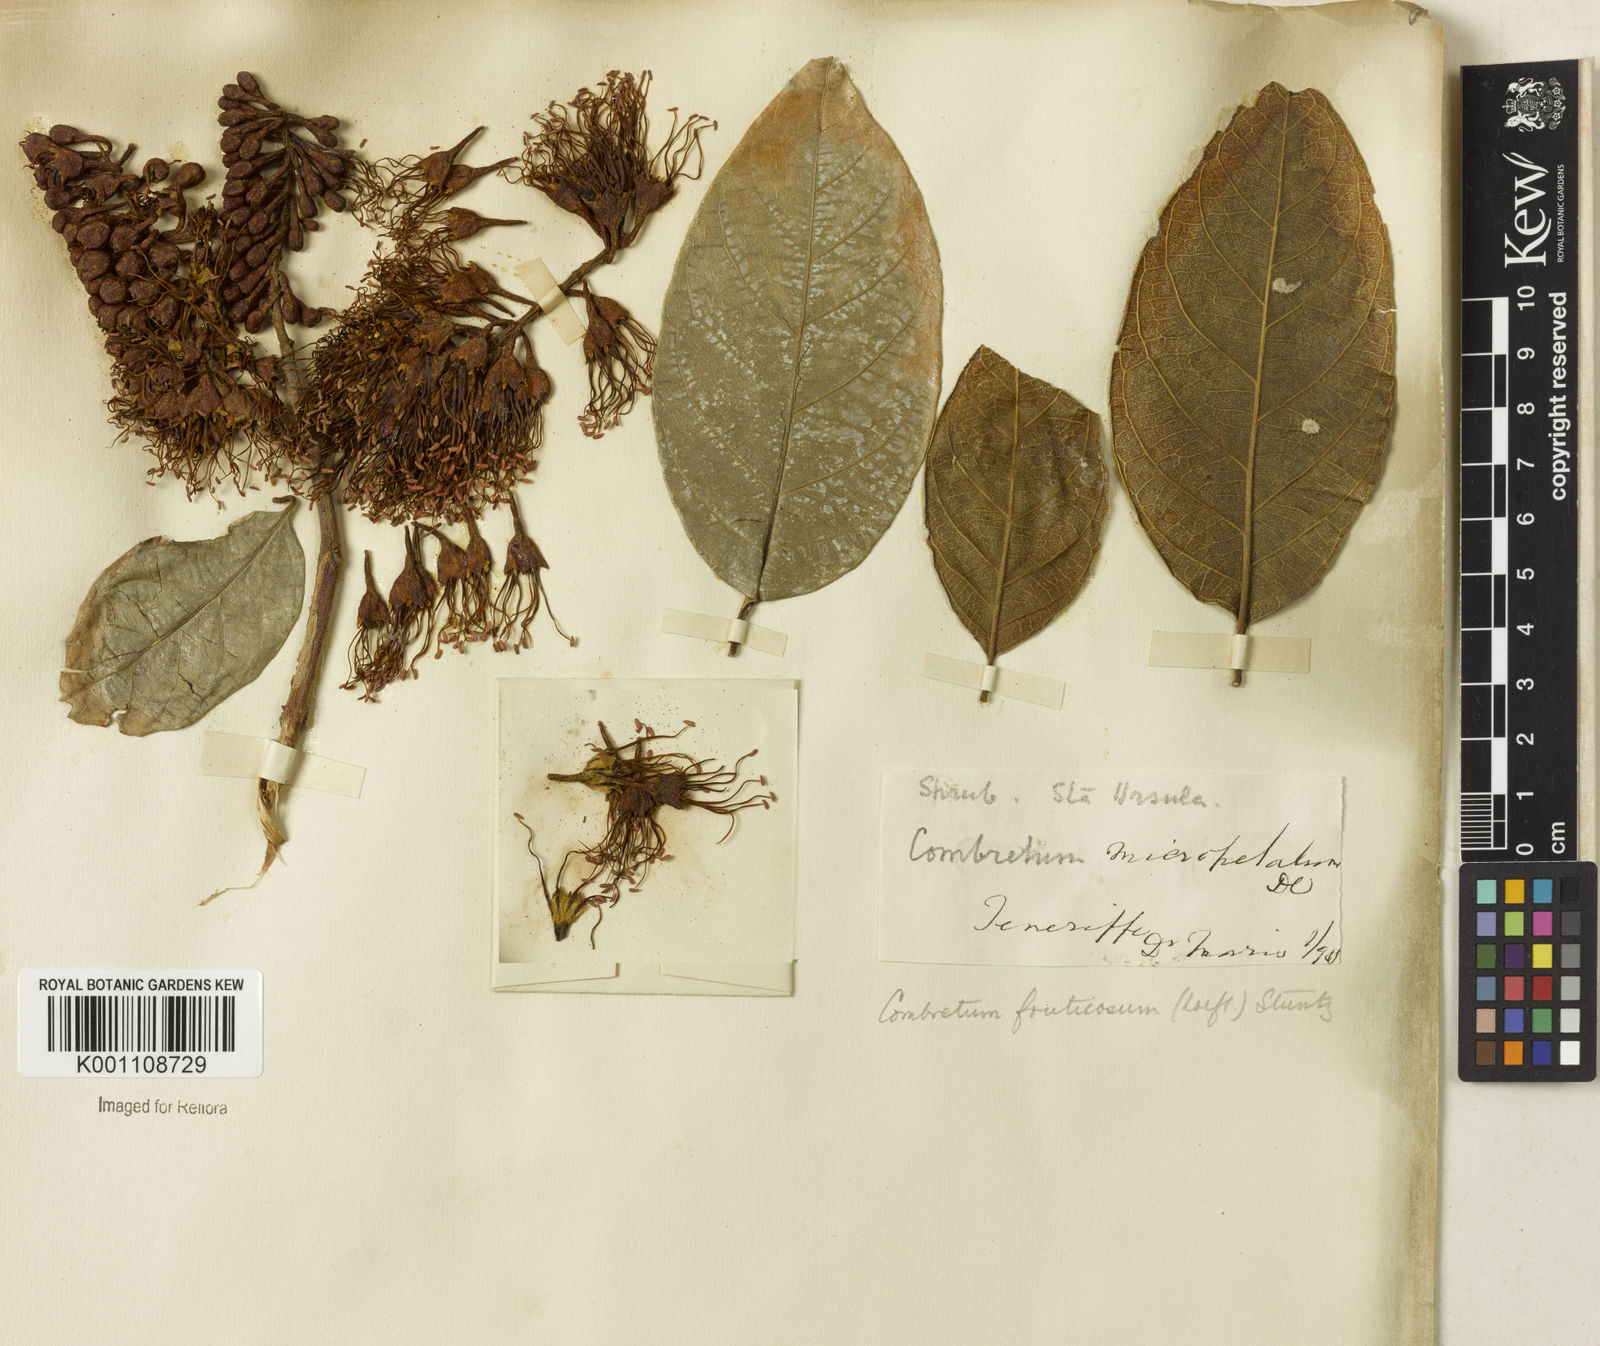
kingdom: Plantae
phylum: Tracheophyta
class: Magnoliopsida
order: Myrtales
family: Combretaceae
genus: Combretum
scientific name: Combretum fruticosum
